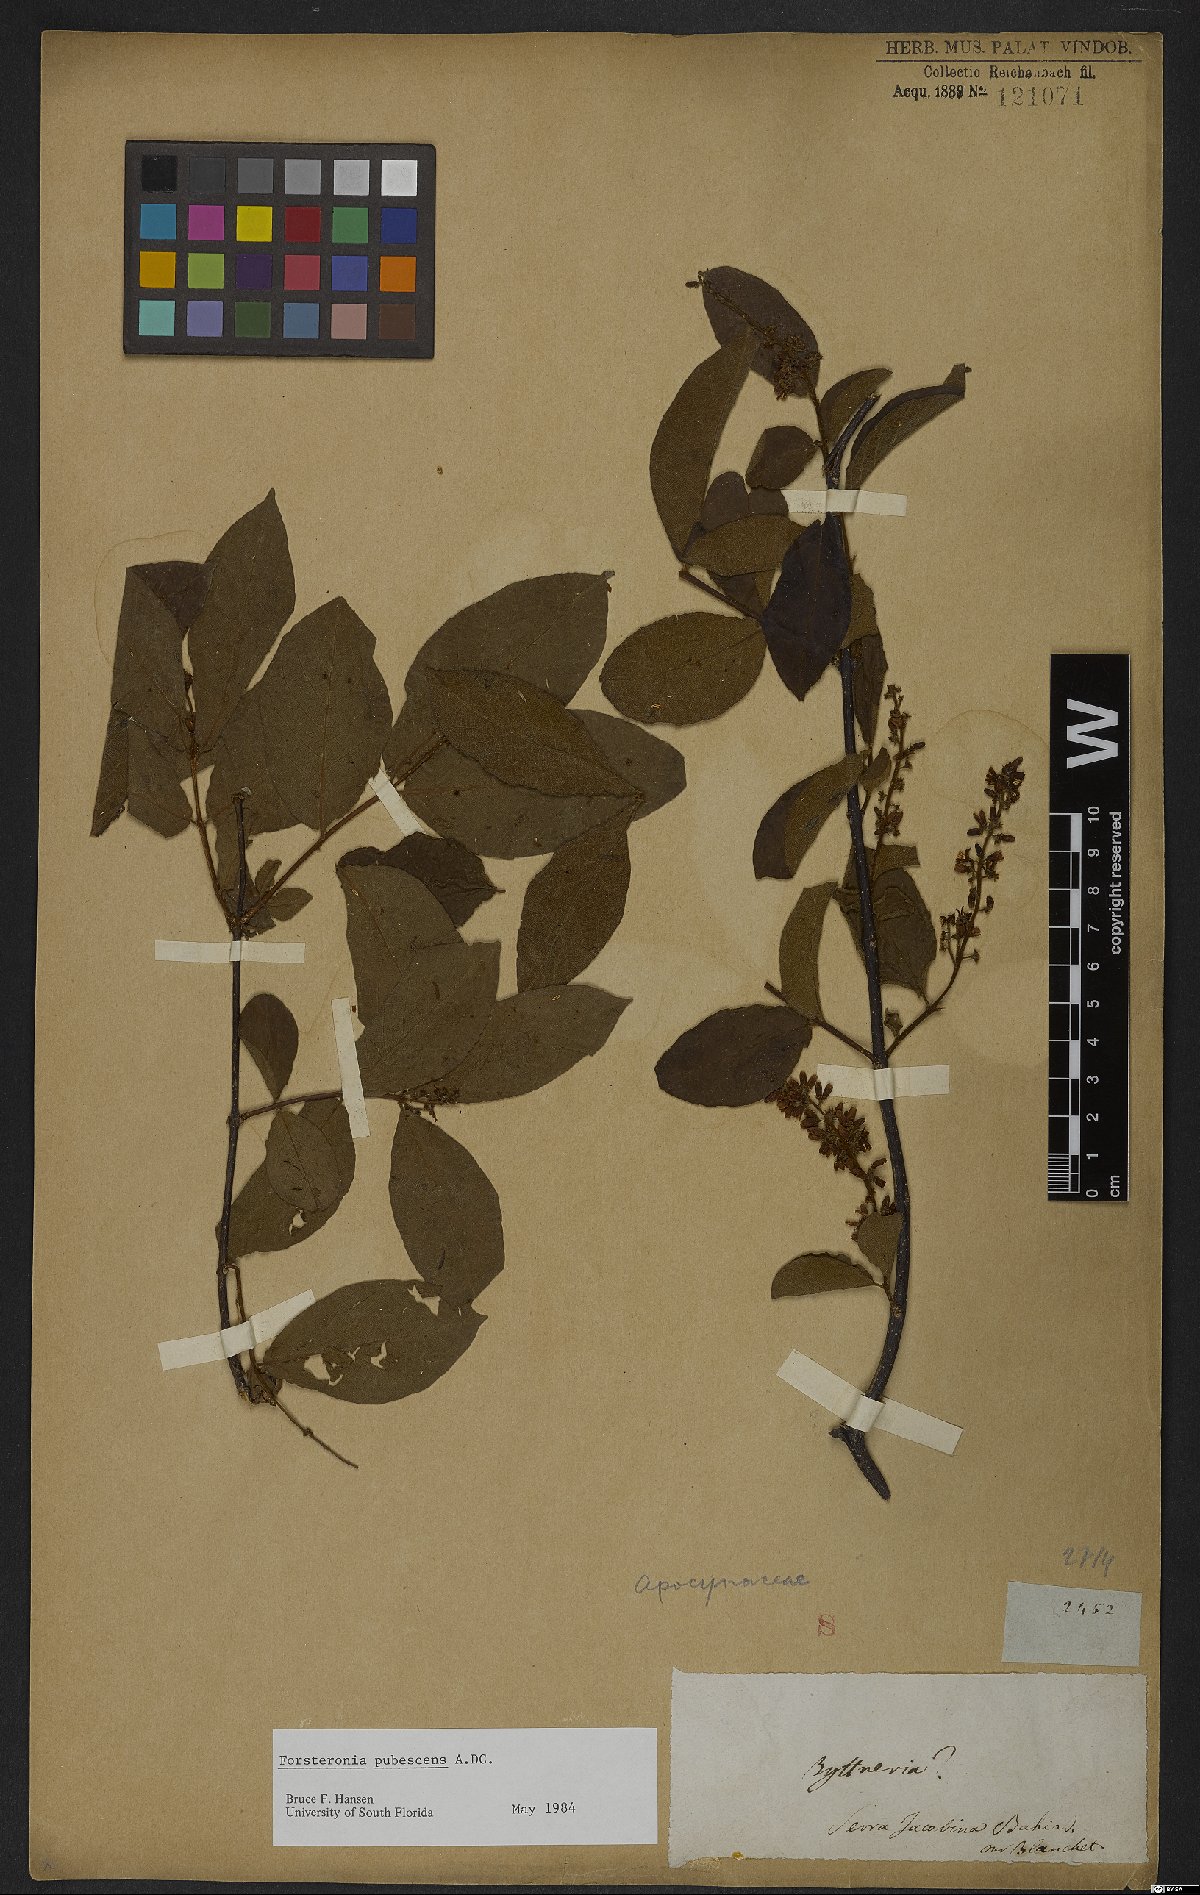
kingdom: Plantae
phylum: Tracheophyta
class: Magnoliopsida
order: Gentianales
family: Apocynaceae
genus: Forsteronia
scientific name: Forsteronia pubescens
